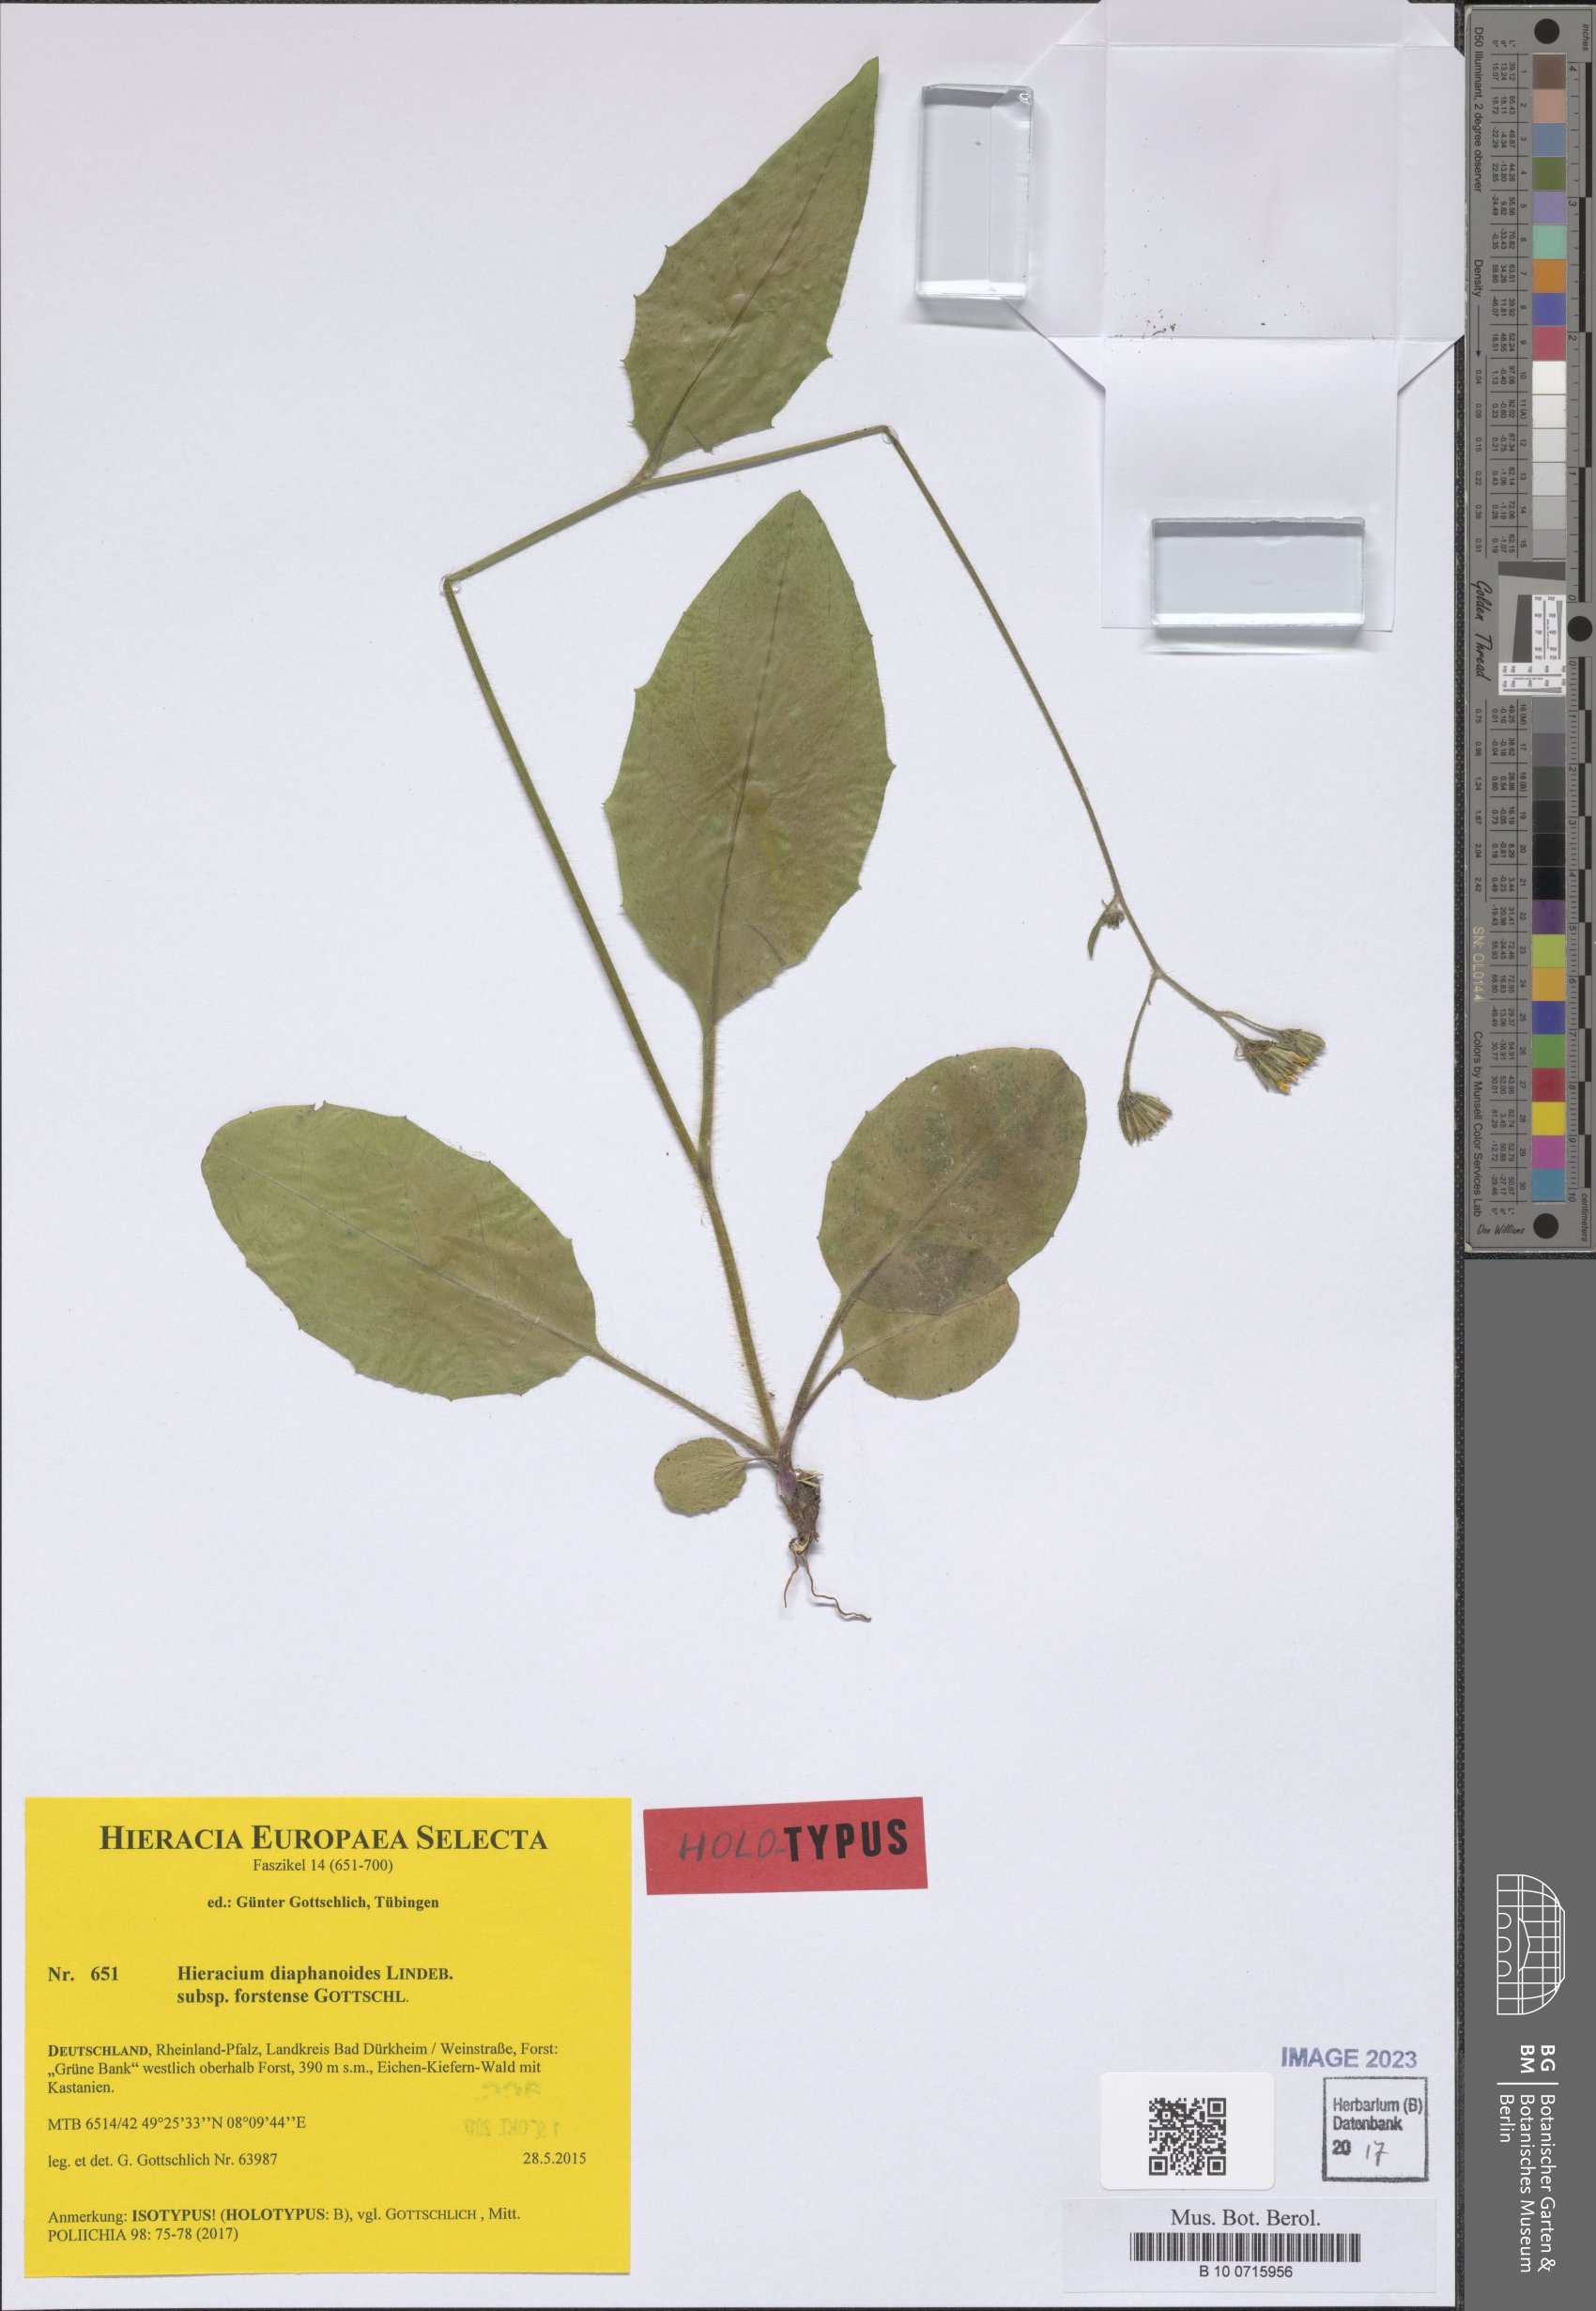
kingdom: Plantae
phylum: Tracheophyta
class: Magnoliopsida
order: Asterales
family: Asteraceae
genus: Hieracium
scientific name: Hieracium diaphanoides
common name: Fine-bracted hawkweed
